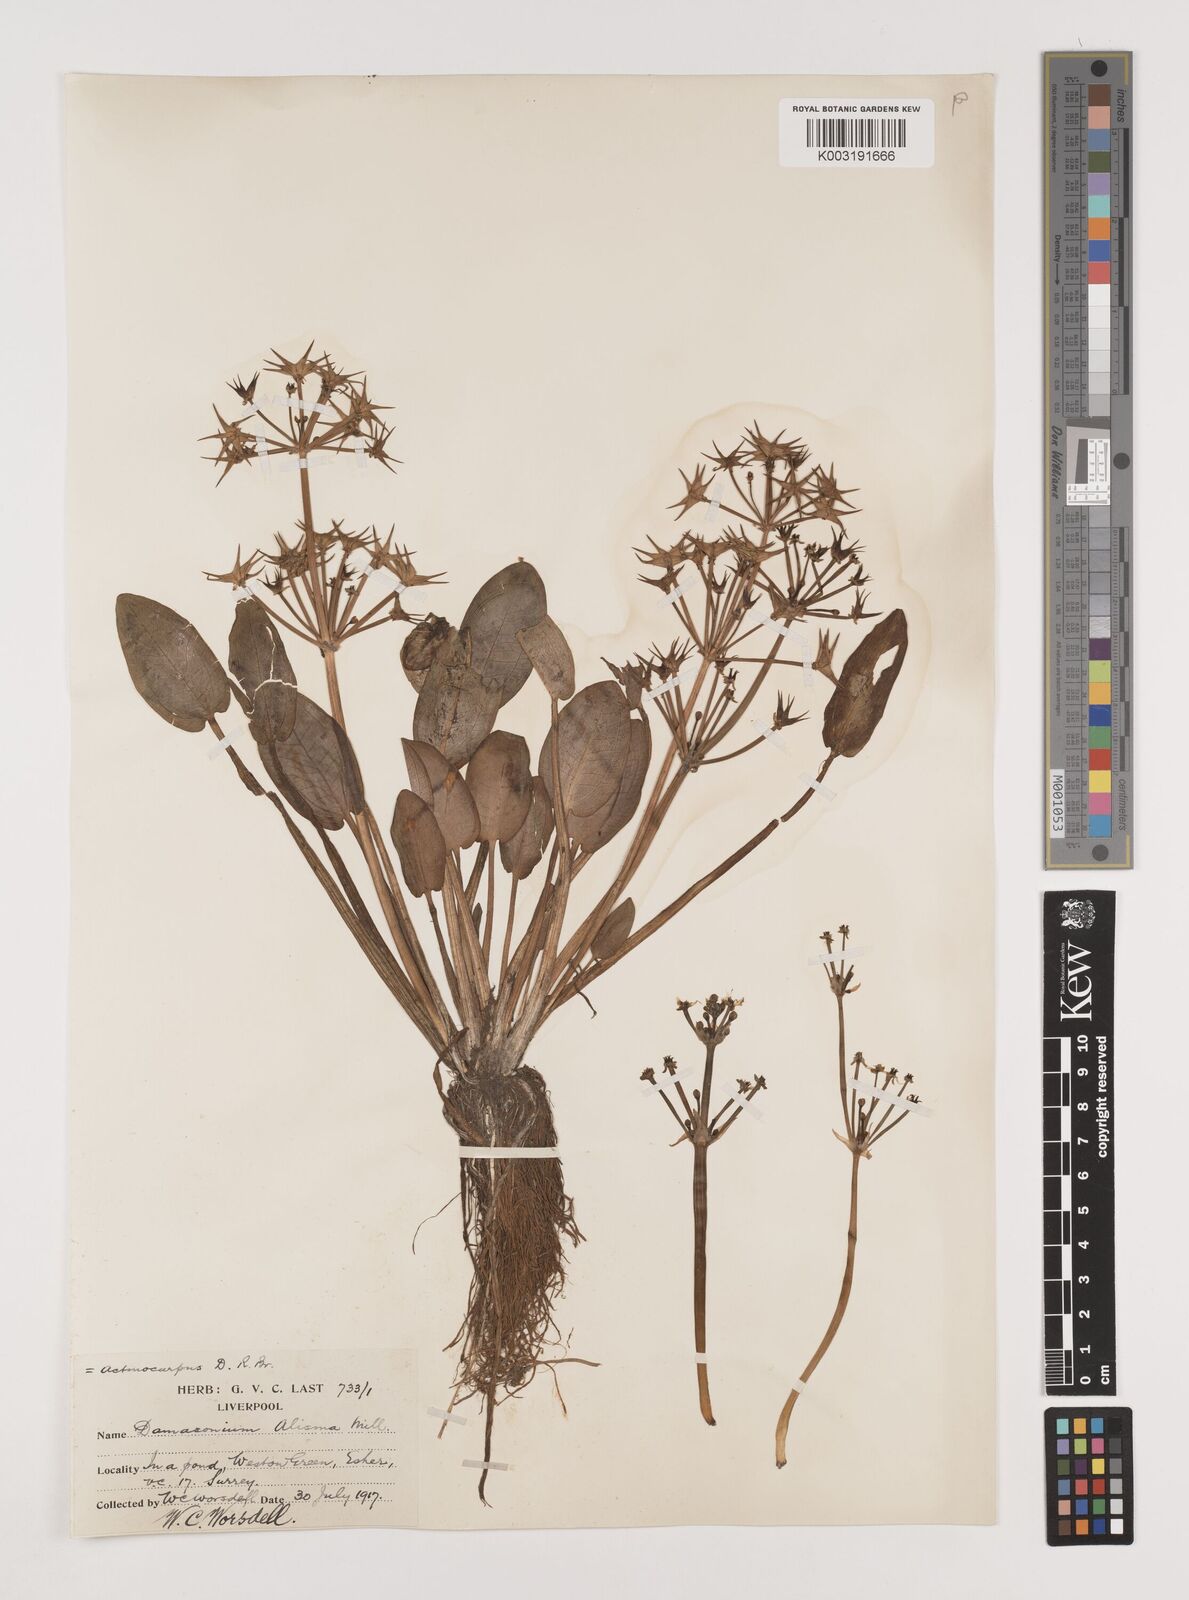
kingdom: Plantae
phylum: Tracheophyta
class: Liliopsida
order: Alismatales
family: Alismataceae
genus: Damasonium
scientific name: Damasonium alisma
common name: Starfruit
